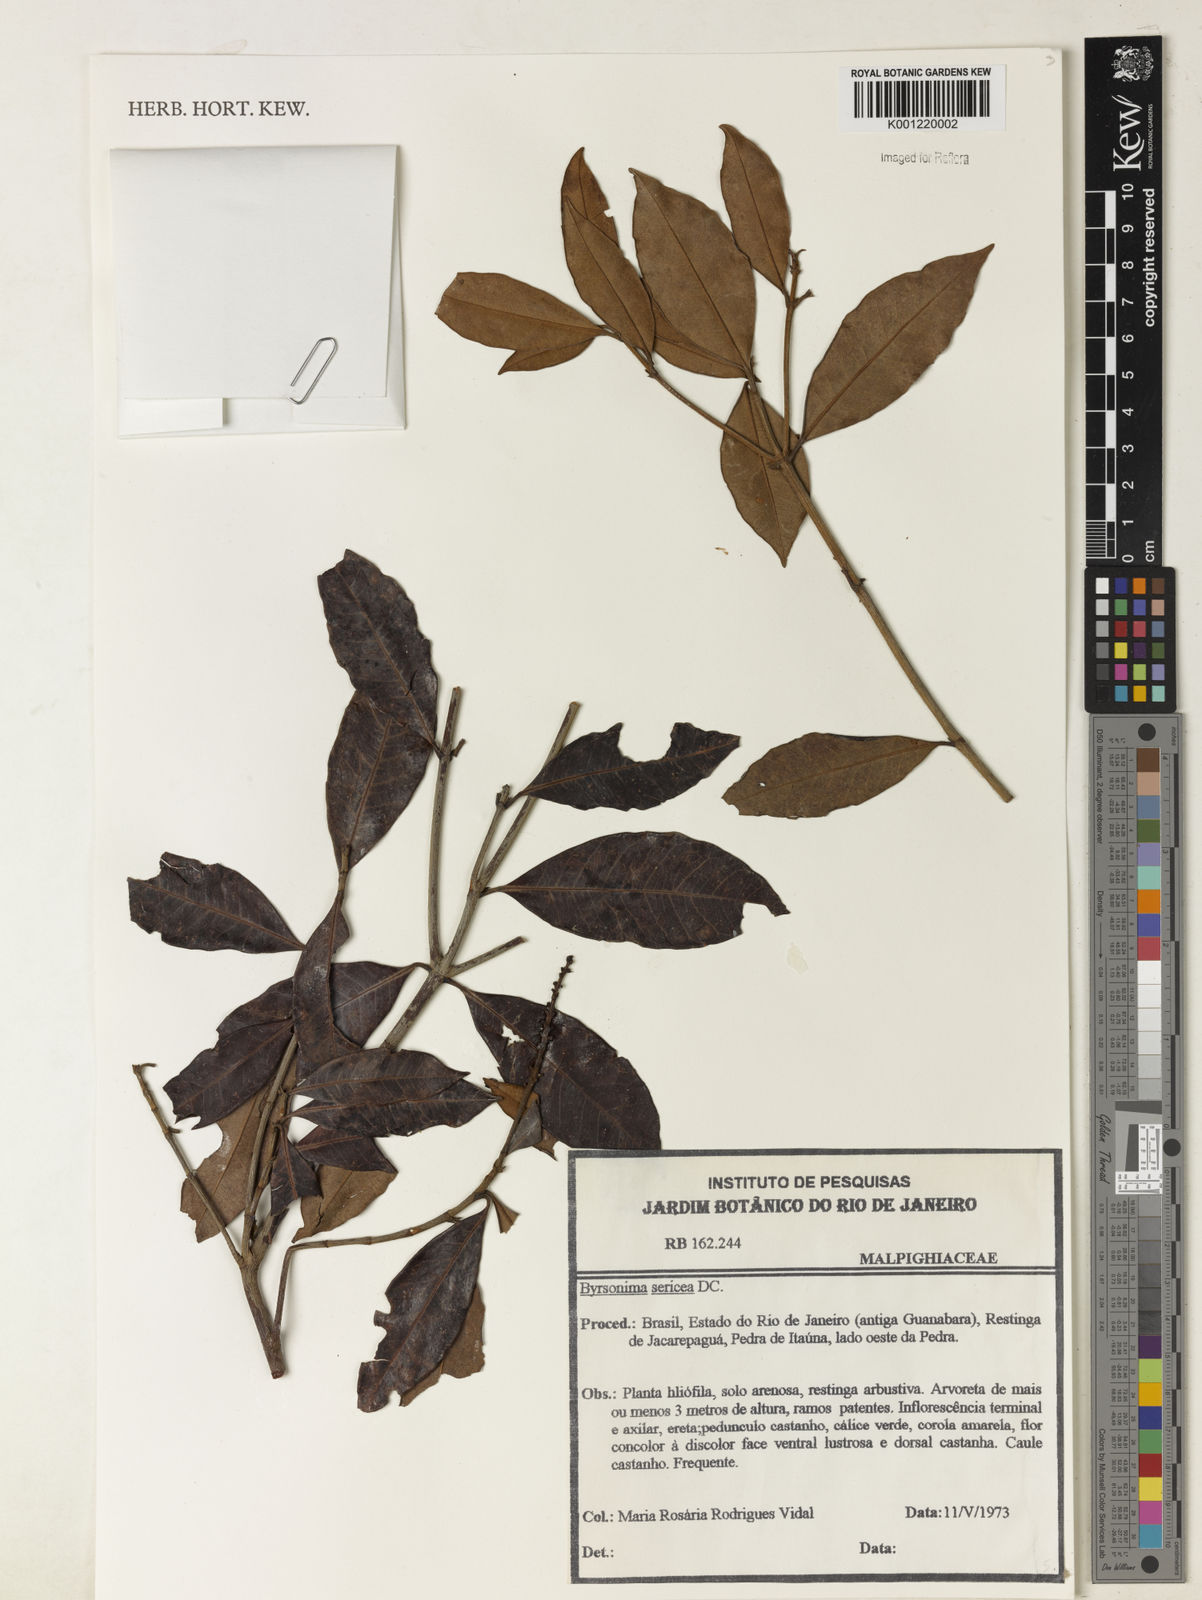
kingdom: Plantae
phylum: Tracheophyta
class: Magnoliopsida
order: Malpighiales
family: Malpighiaceae
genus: Byrsonima
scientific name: Byrsonima sericea
